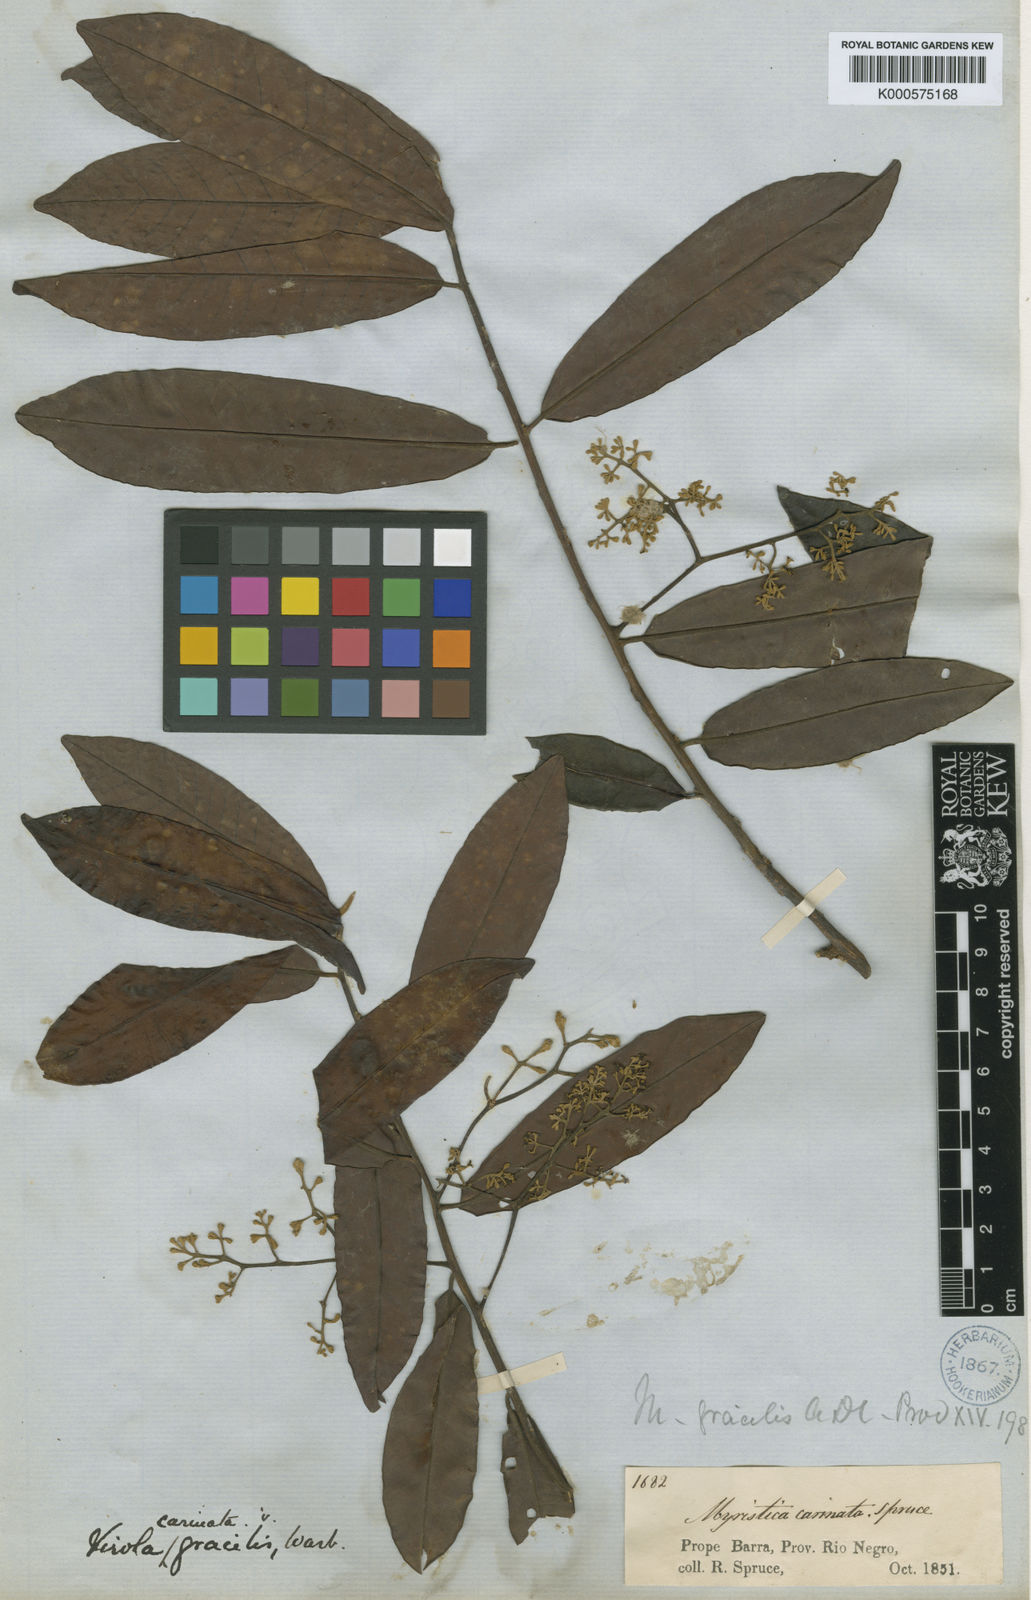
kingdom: Plantae
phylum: Tracheophyta
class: Magnoliopsida
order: Magnoliales
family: Myristicaceae
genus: Virola
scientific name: Virola carinata
